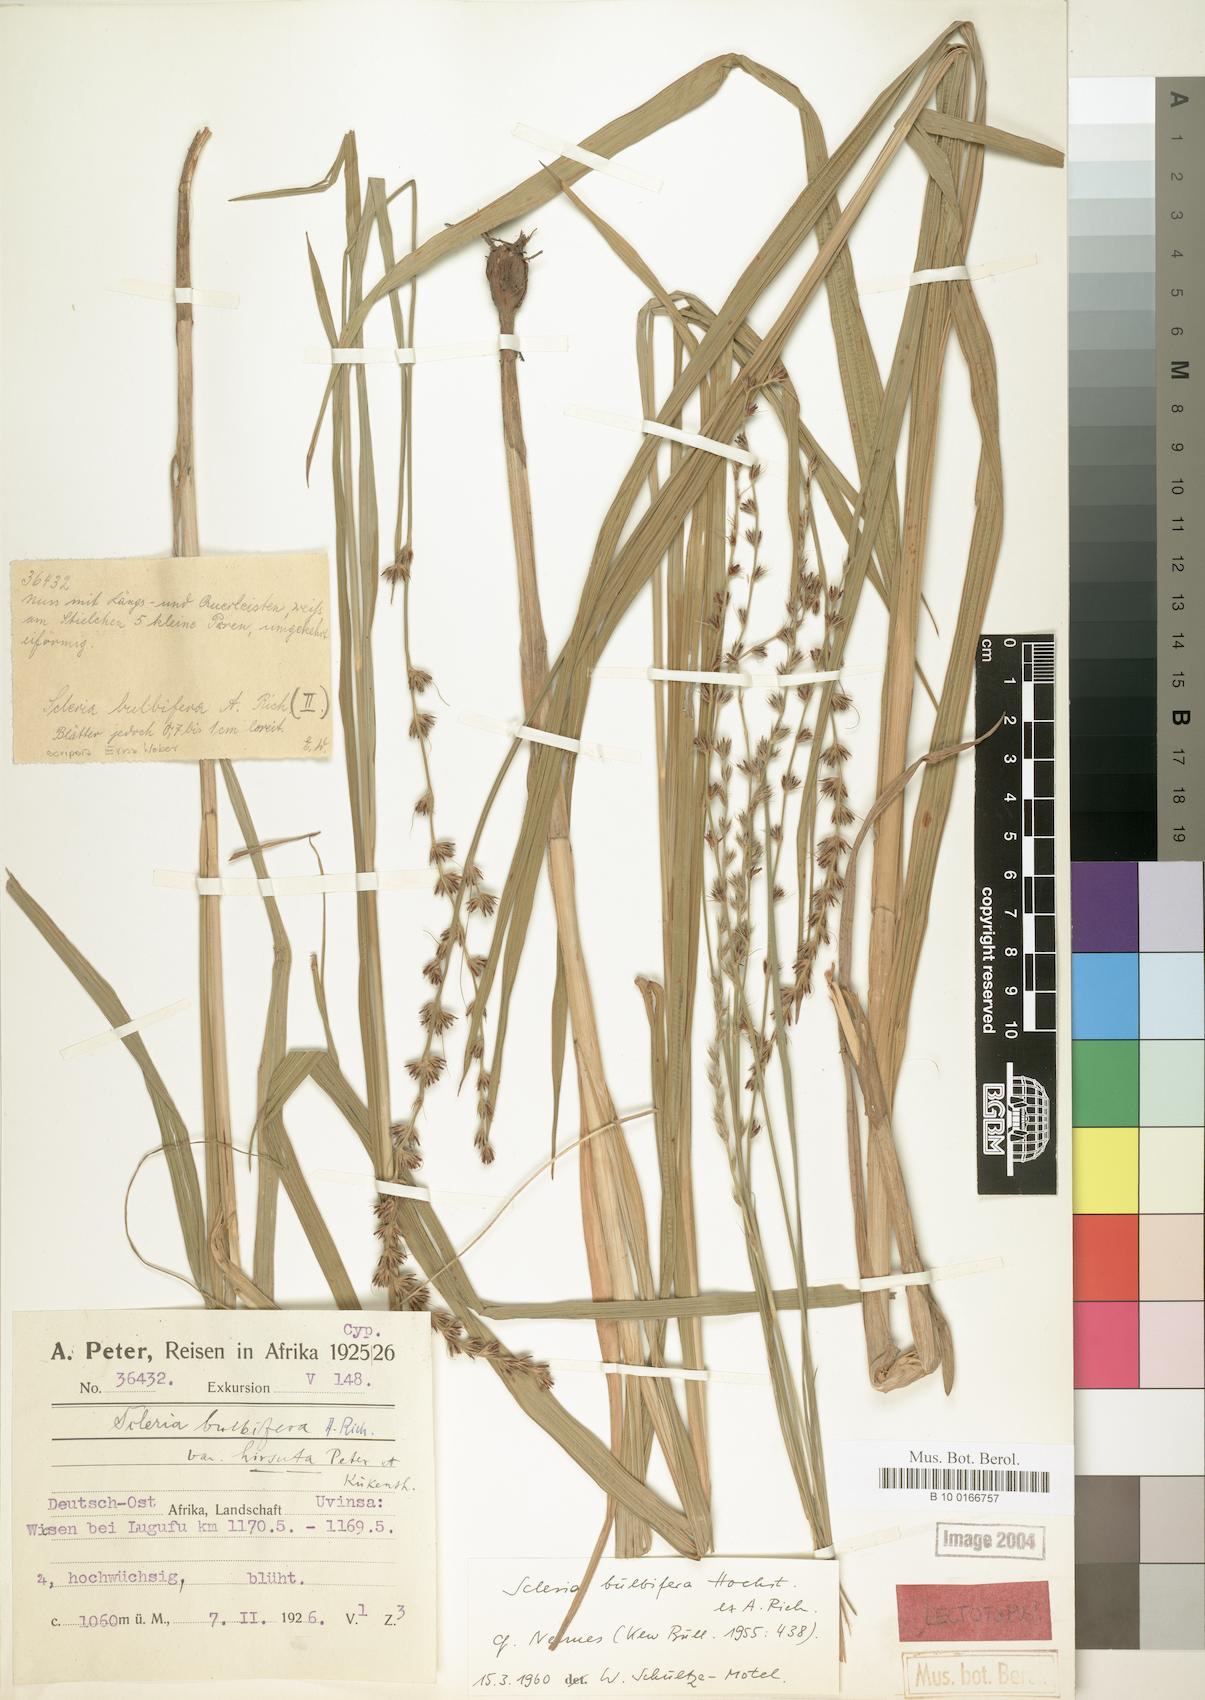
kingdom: Plantae
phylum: Tracheophyta
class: Liliopsida
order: Poales
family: Cyperaceae
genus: Scleria
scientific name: Scleria bulbifera
